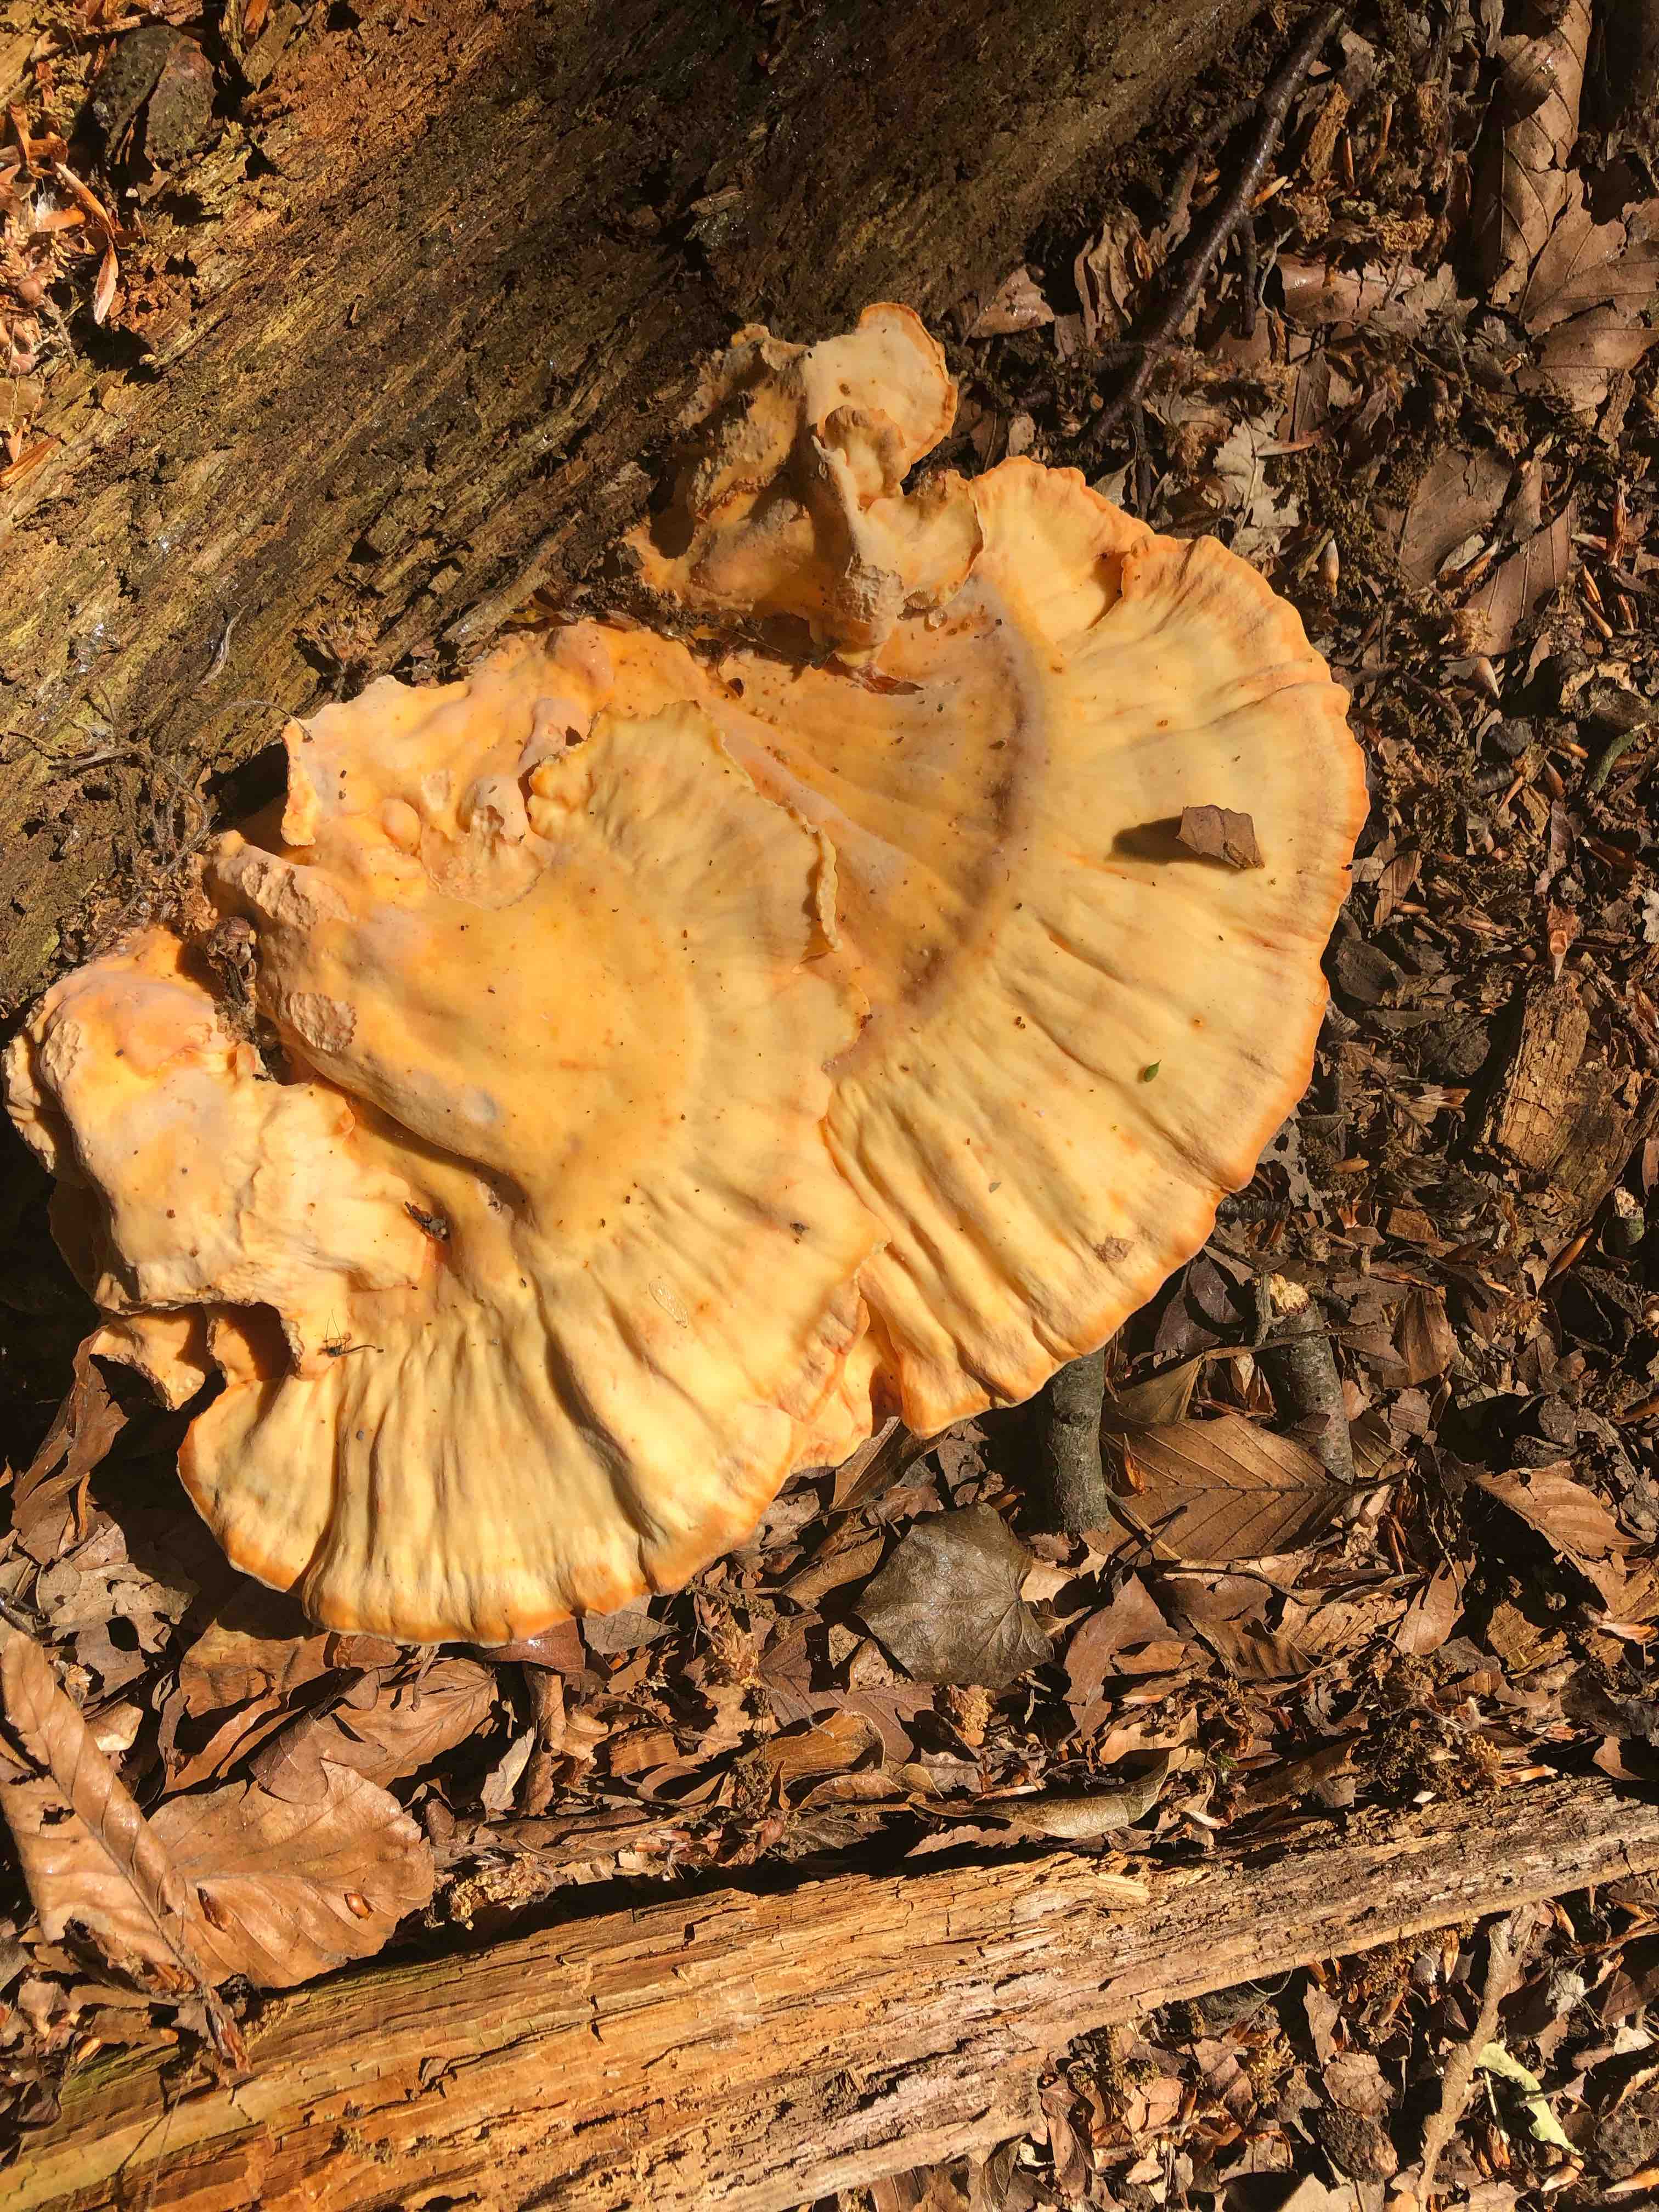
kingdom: Fungi
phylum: Basidiomycota
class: Agaricomycetes
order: Polyporales
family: Laetiporaceae
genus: Laetiporus
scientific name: Laetiporus sulphureus
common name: svovlporesvamp
